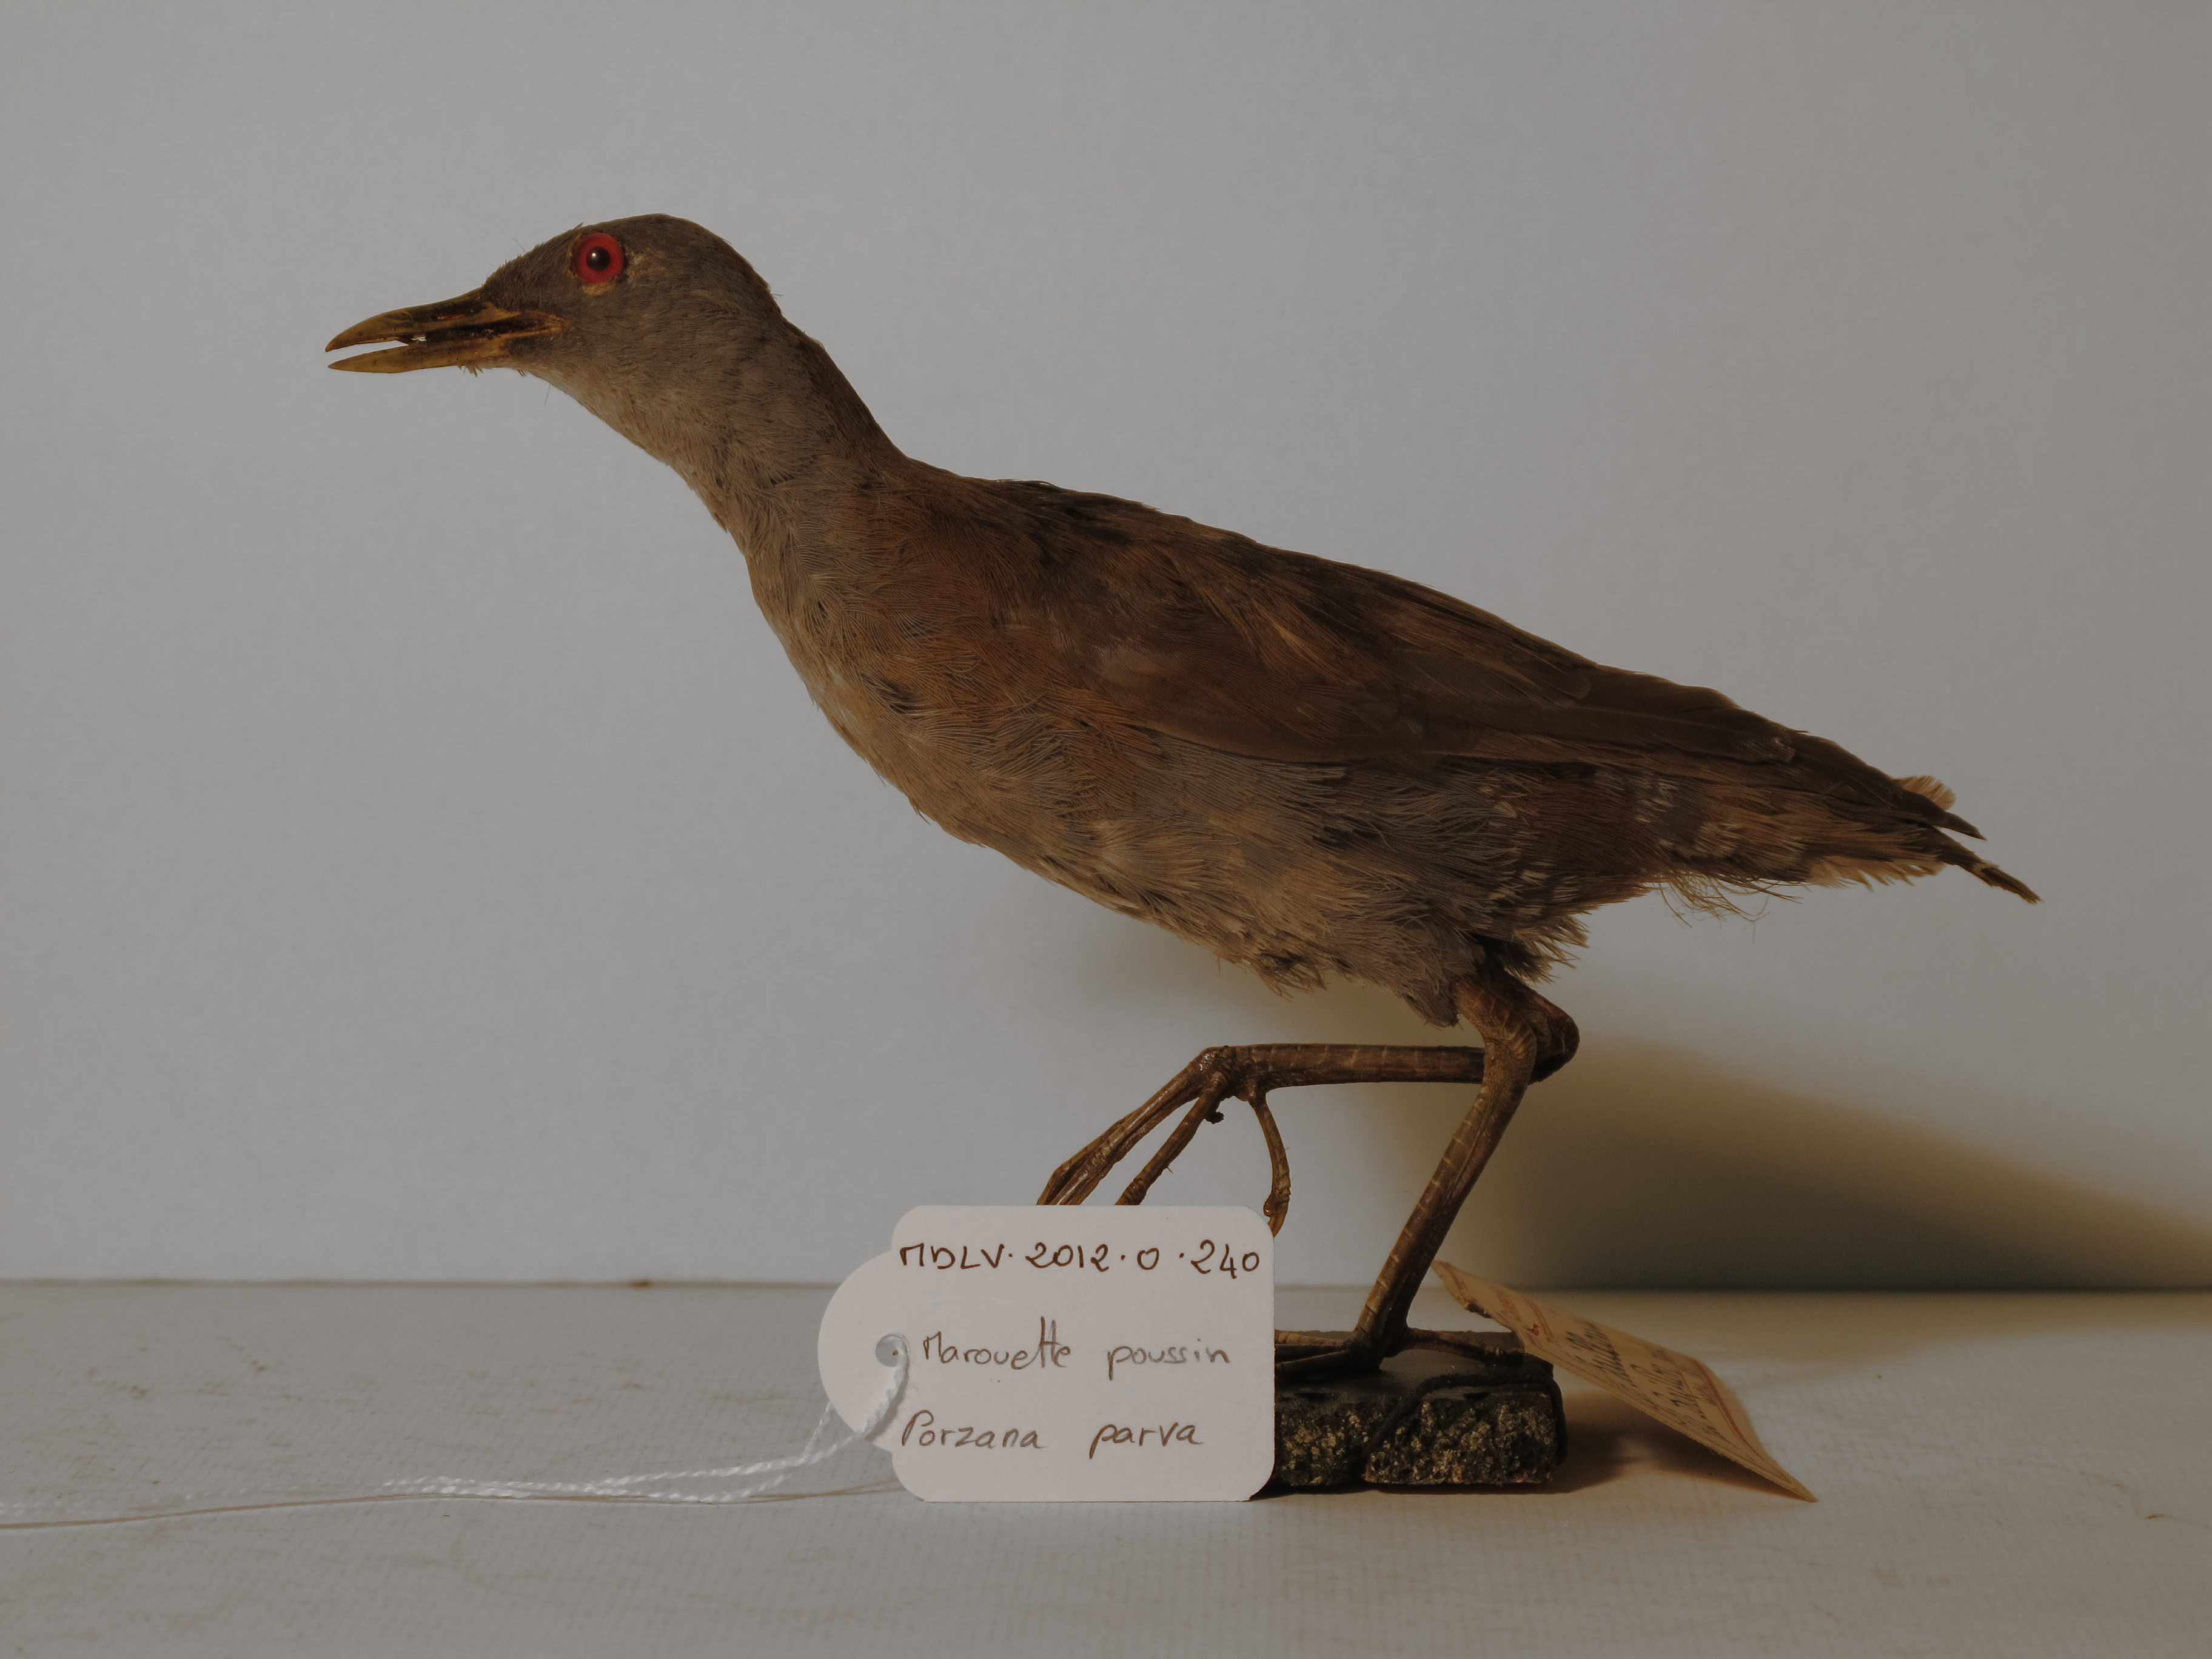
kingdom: Animalia
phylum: Chordata
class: Aves
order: Gruiformes
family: Rallidae
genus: Porzana
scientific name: Porzana parva
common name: Little Crake
